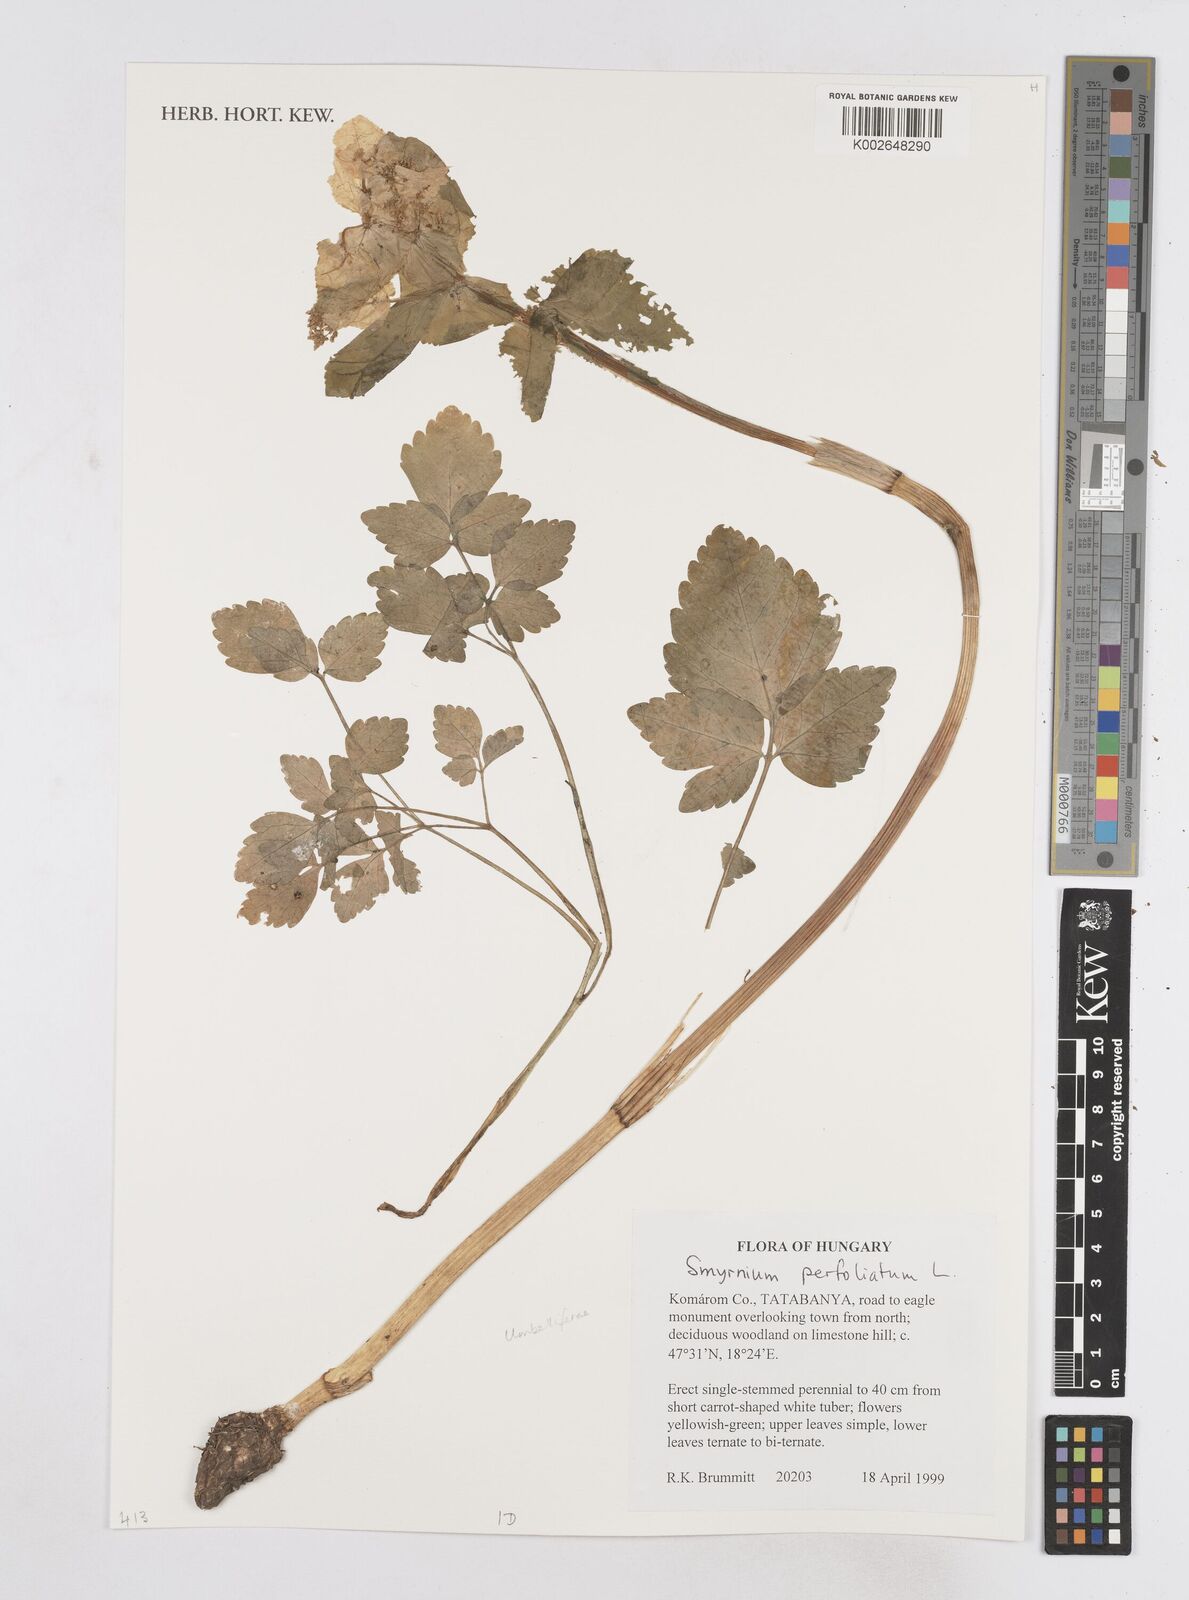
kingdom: Plantae
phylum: Tracheophyta
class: Magnoliopsida
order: Apiales
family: Apiaceae
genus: Smyrnium
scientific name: Smyrnium perfoliatum
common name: Perfoliate alexanders
